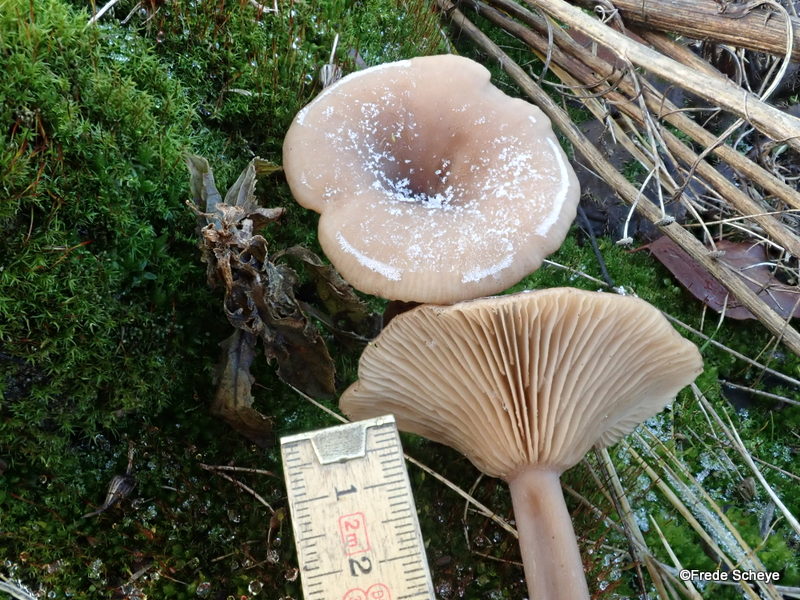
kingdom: Fungi
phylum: Basidiomycota
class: Agaricomycetes
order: Agaricales
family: Pseudoclitocybaceae
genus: Pseudoclitocybe
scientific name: Pseudoclitocybe cyathiformis
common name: almindelig bægertragthat
